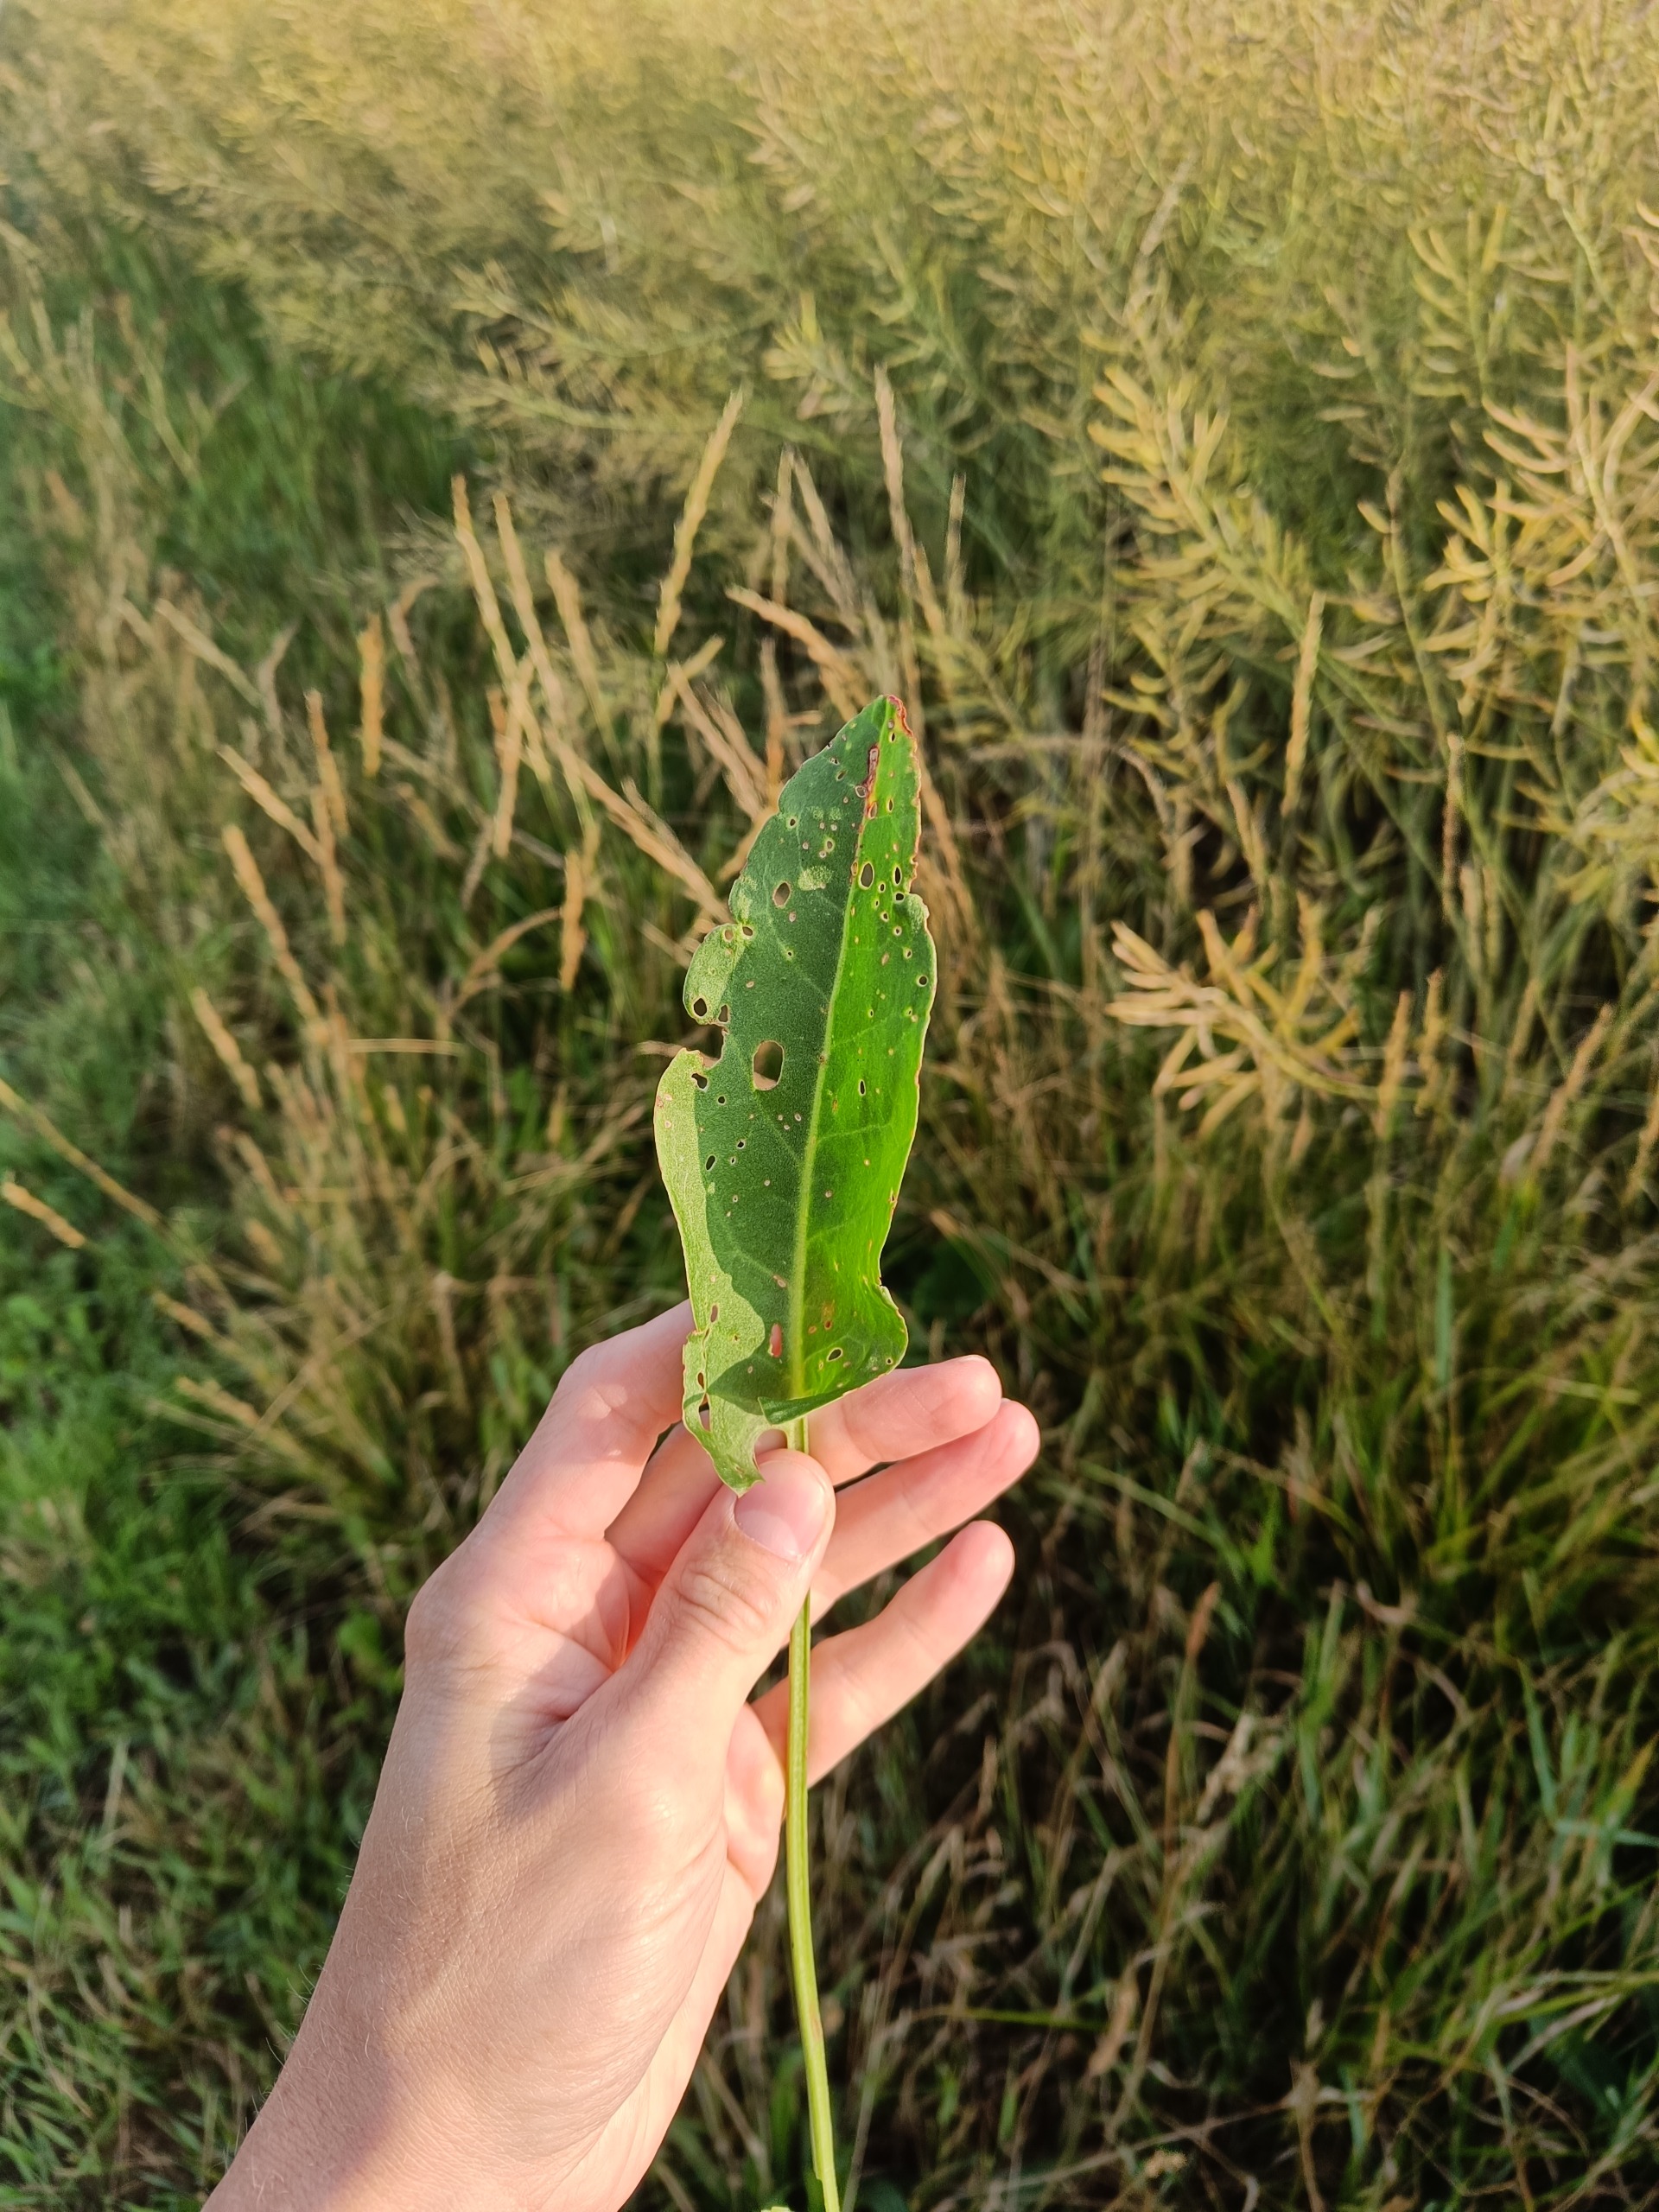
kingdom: Plantae
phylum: Tracheophyta
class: Magnoliopsida
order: Caryophyllales
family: Polygonaceae
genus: Rumex
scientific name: Rumex thyrsiflorus
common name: Dusk-syre
